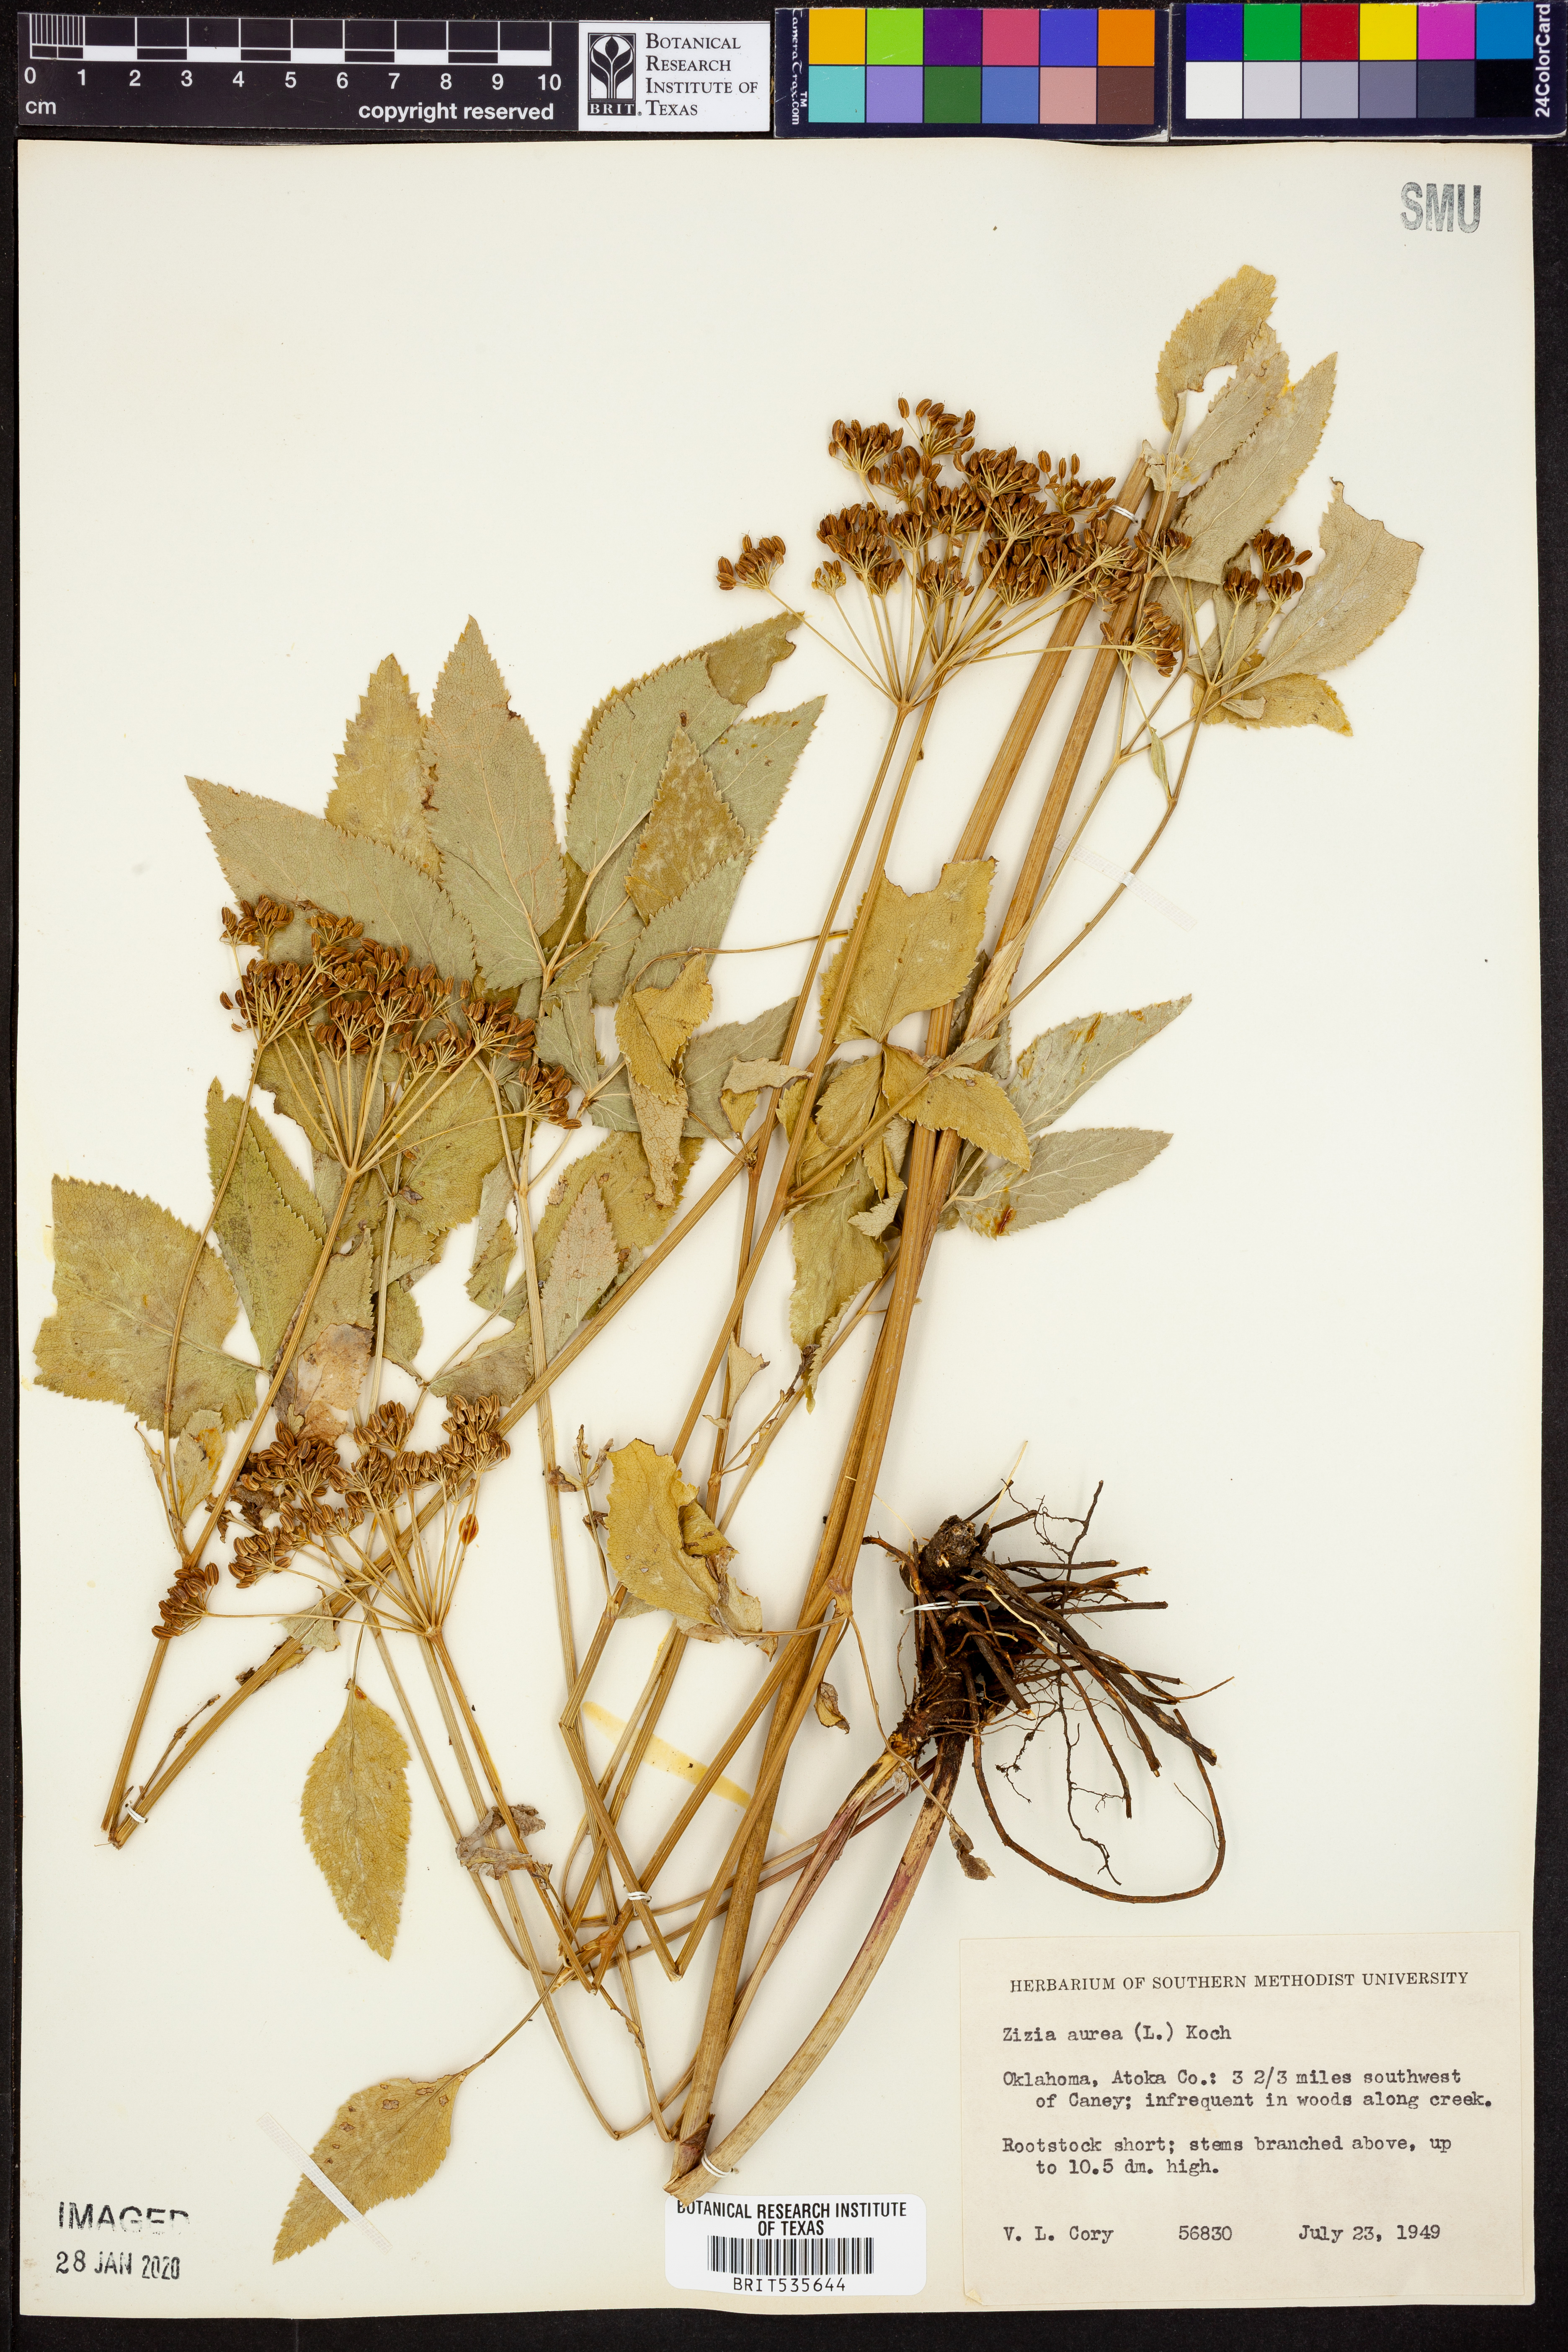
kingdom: Plantae
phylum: Tracheophyta
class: Magnoliopsida
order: Apiales
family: Apiaceae
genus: Zizia
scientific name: Zizia aurea
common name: Golden alexanders
